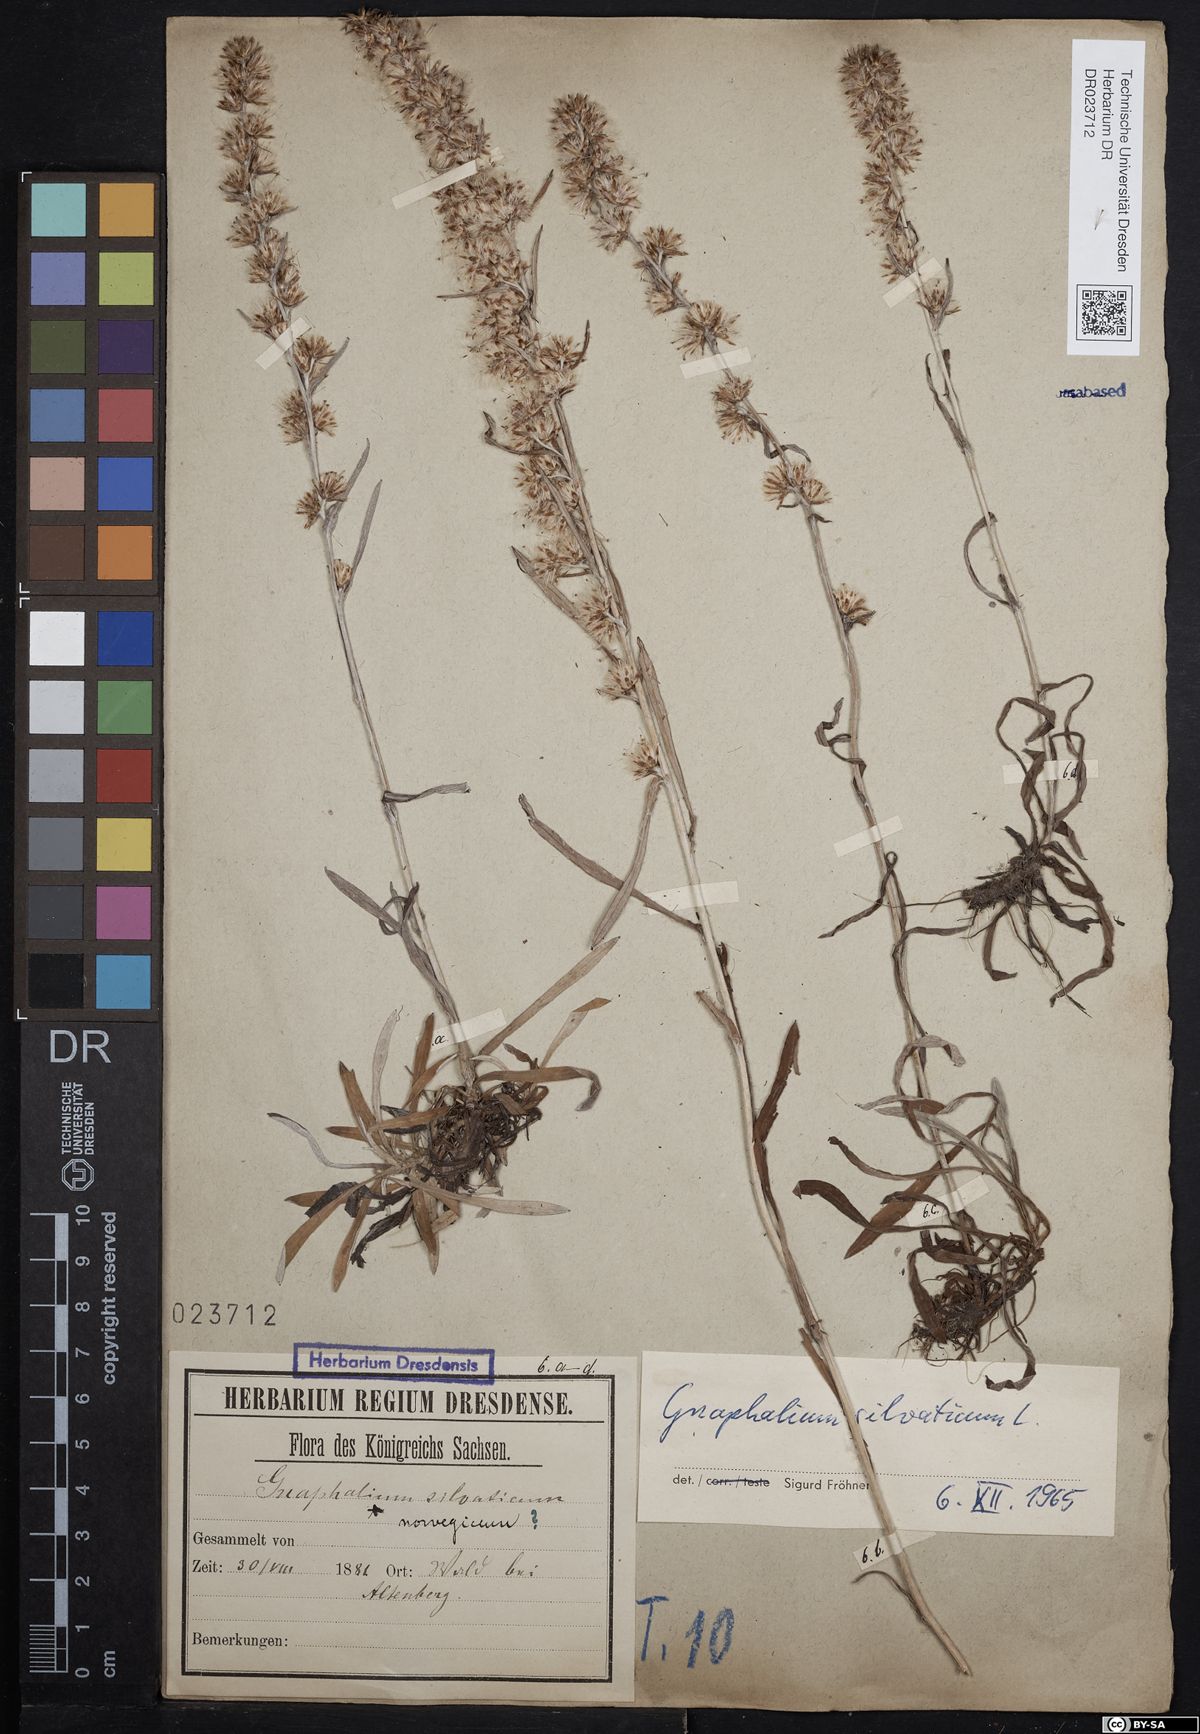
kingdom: Plantae
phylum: Tracheophyta
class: Magnoliopsida
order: Asterales
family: Asteraceae
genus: Omalotheca
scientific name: Omalotheca sylvatica
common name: Heath cudweed
